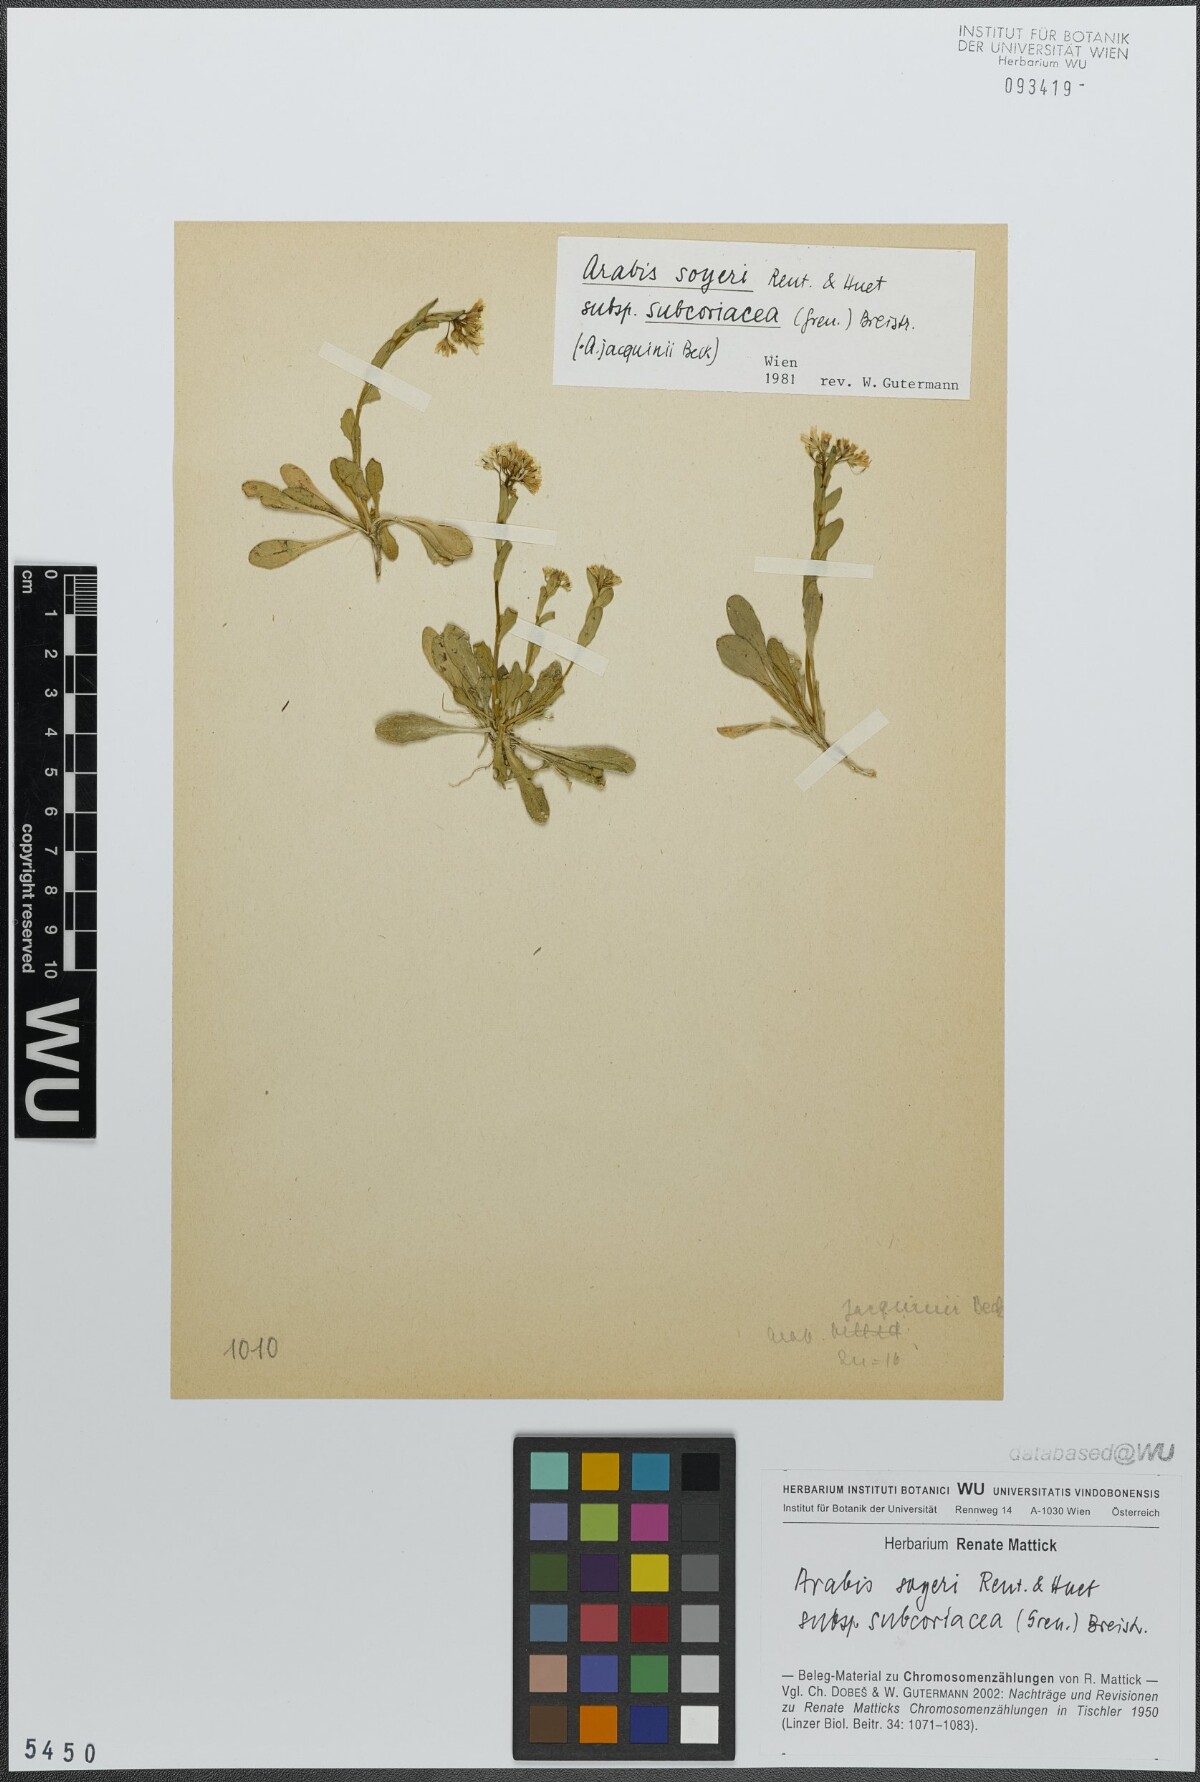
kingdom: Plantae
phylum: Tracheophyta
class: Magnoliopsida
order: Brassicales
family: Brassicaceae
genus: Arabis
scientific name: Arabis soyeri
